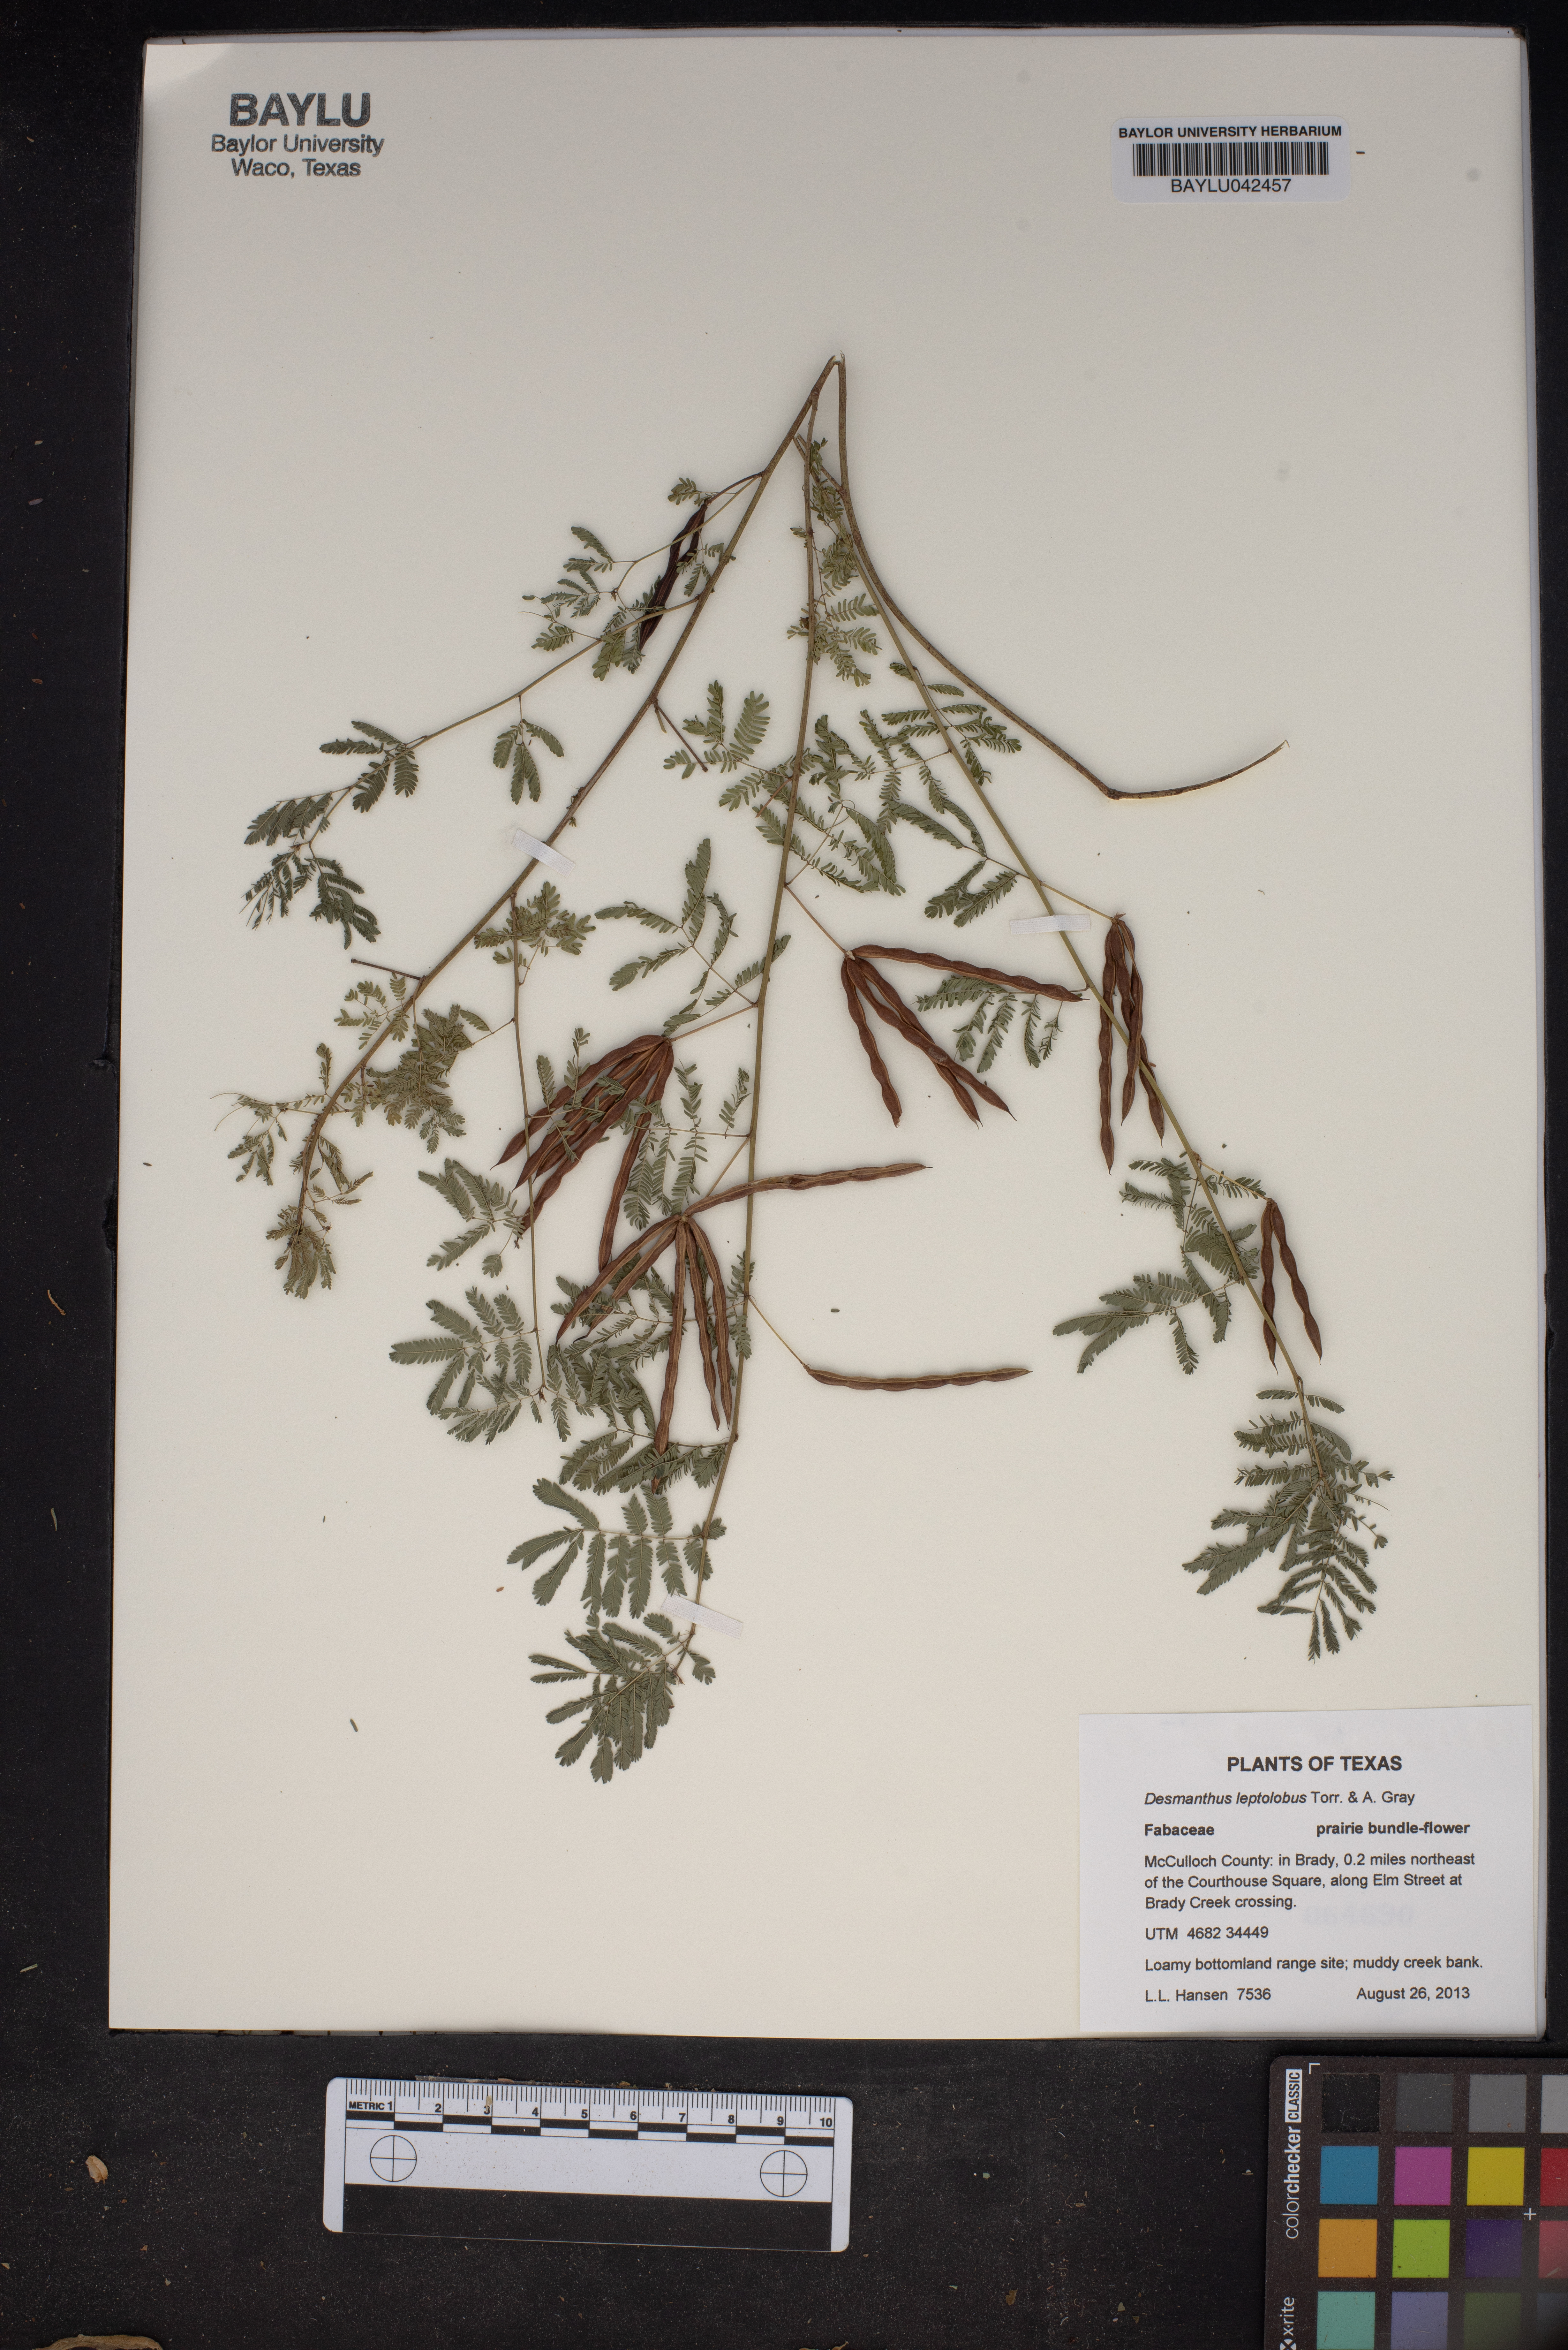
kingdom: Plantae
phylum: Tracheophyta
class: Magnoliopsida
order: Fabales
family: Fabaceae
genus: Desmanthus
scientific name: Desmanthus leptolobus
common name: Prairie-mimosa
